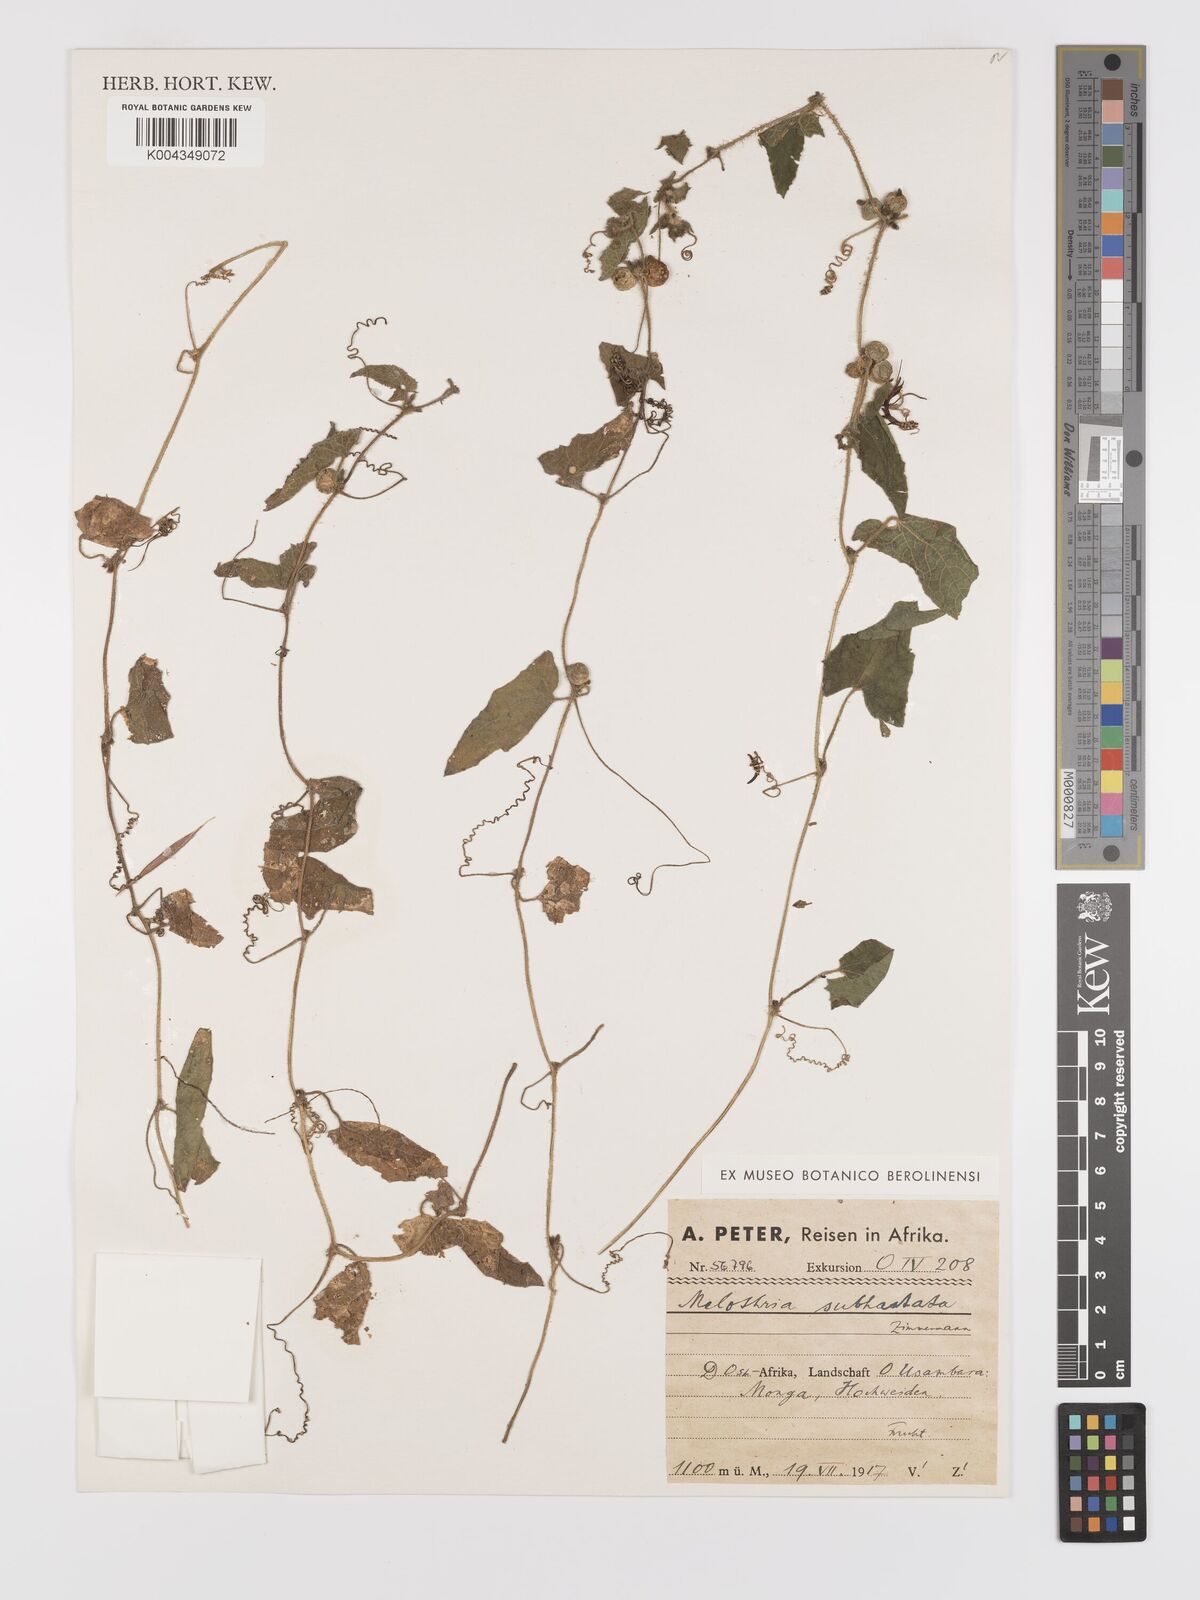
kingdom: Plantae
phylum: Tracheophyta
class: Magnoliopsida
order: Cucurbitales
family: Cucurbitaceae
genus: Cucumis
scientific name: Cucumis maderaspatanus
